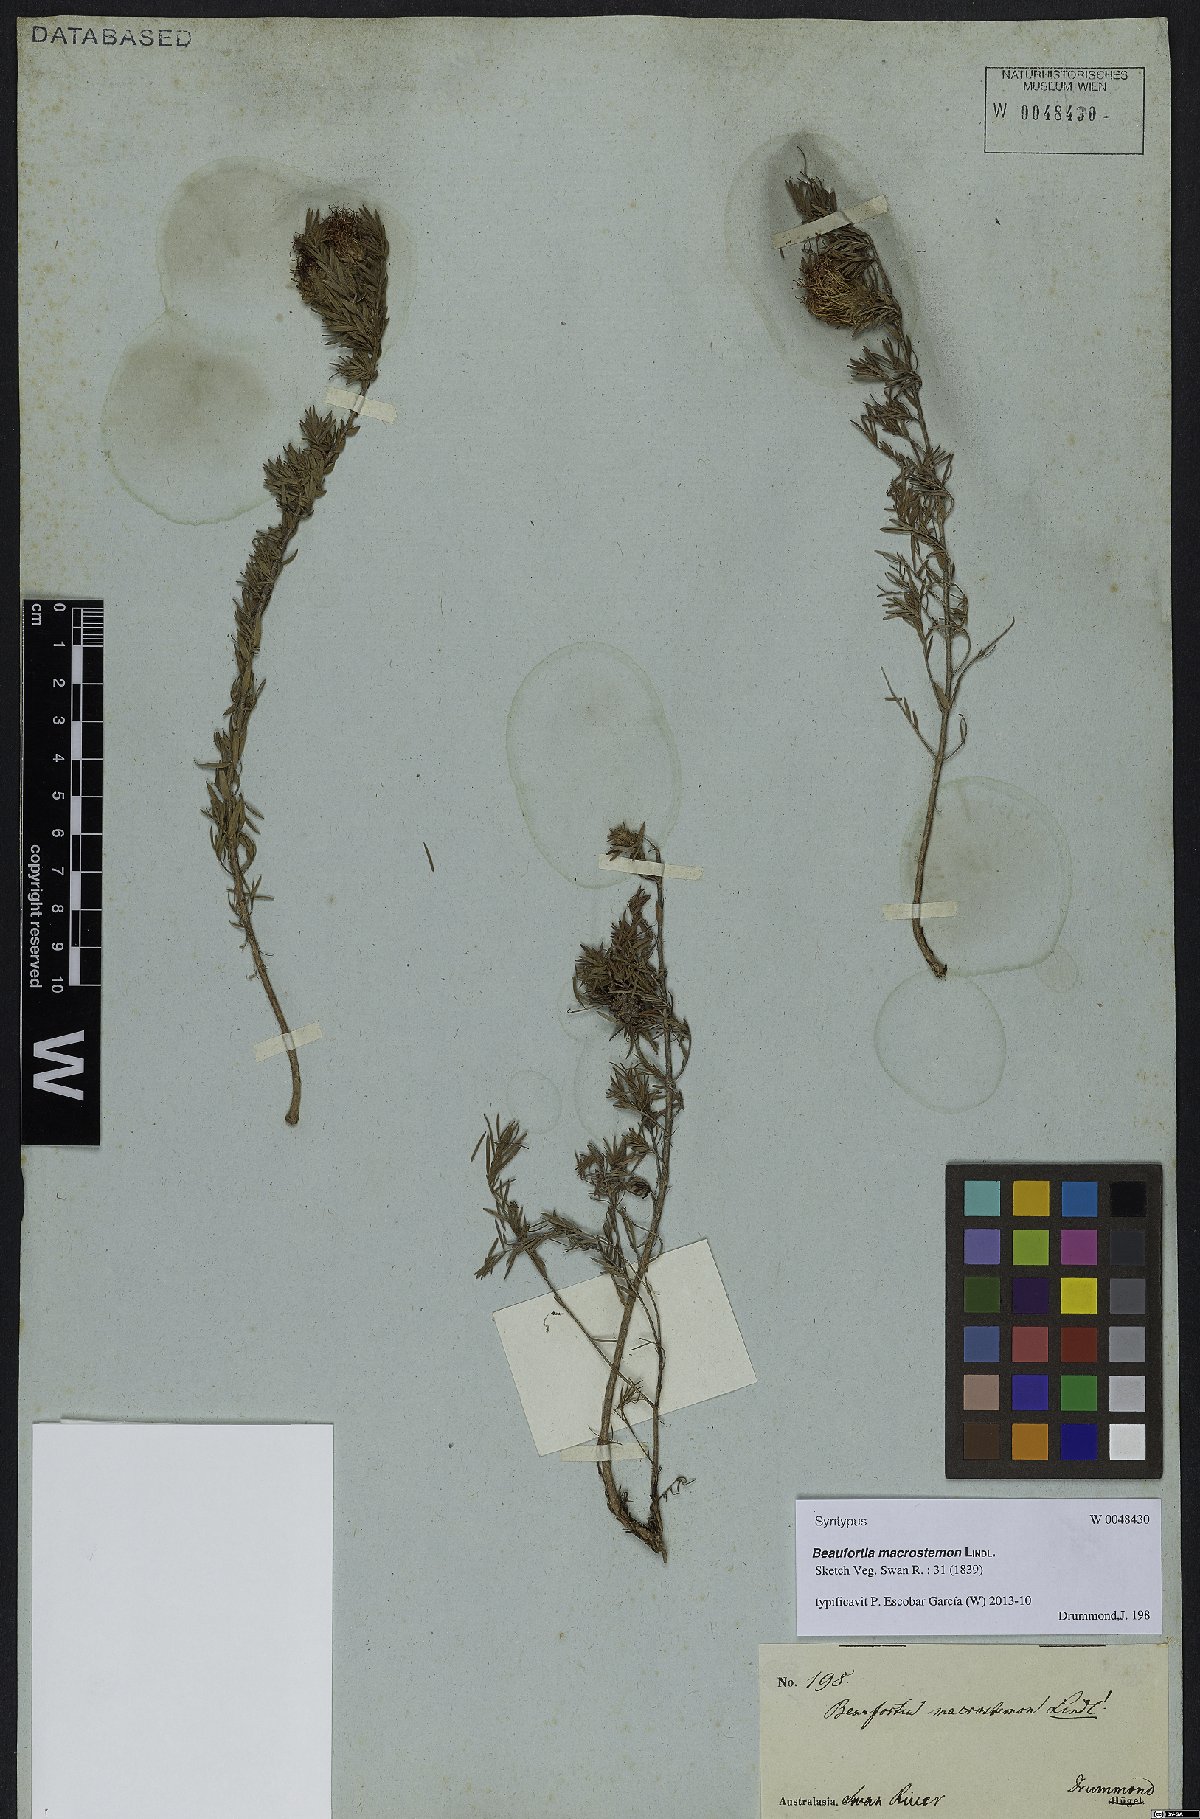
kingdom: Plantae
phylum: Tracheophyta
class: Magnoliopsida
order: Myrtales
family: Myrtaceae
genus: Melaleuca
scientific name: Melaleuca macrostemon
